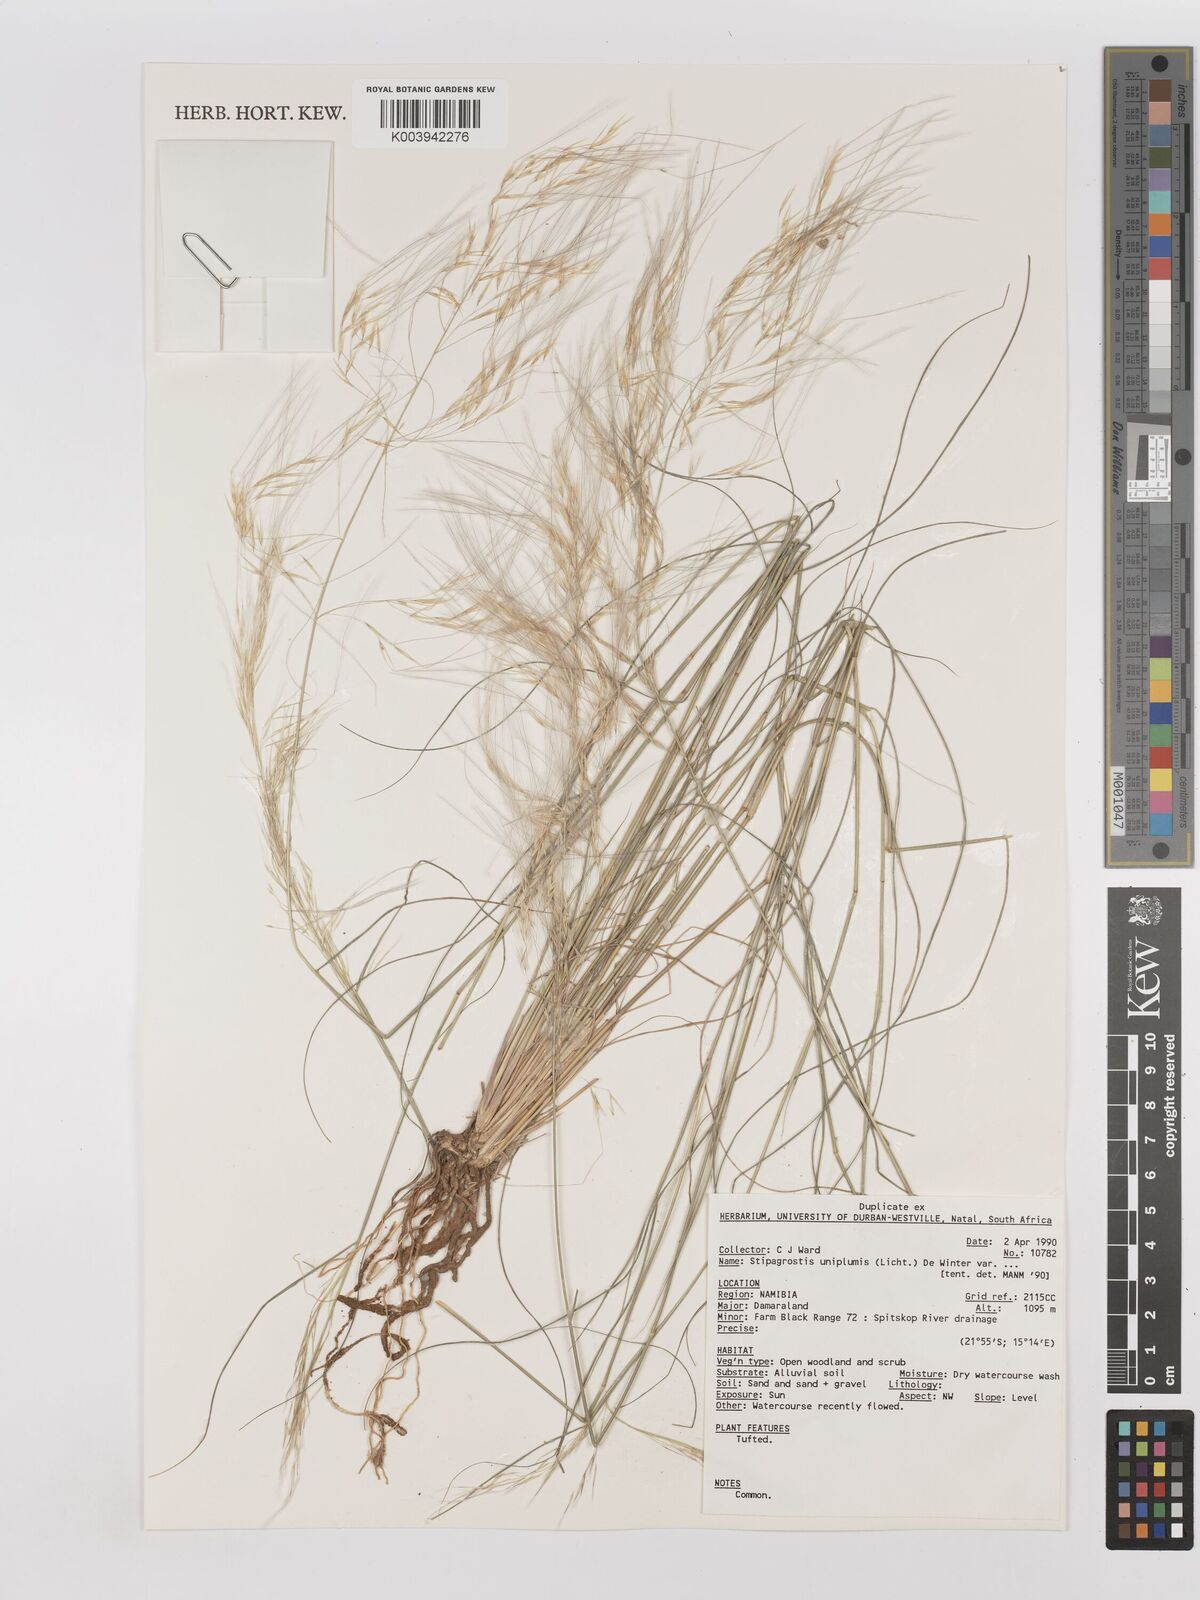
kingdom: Plantae
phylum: Tracheophyta
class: Liliopsida
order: Poales
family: Poaceae
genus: Stipagrostis
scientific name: Stipagrostis uniplumis
